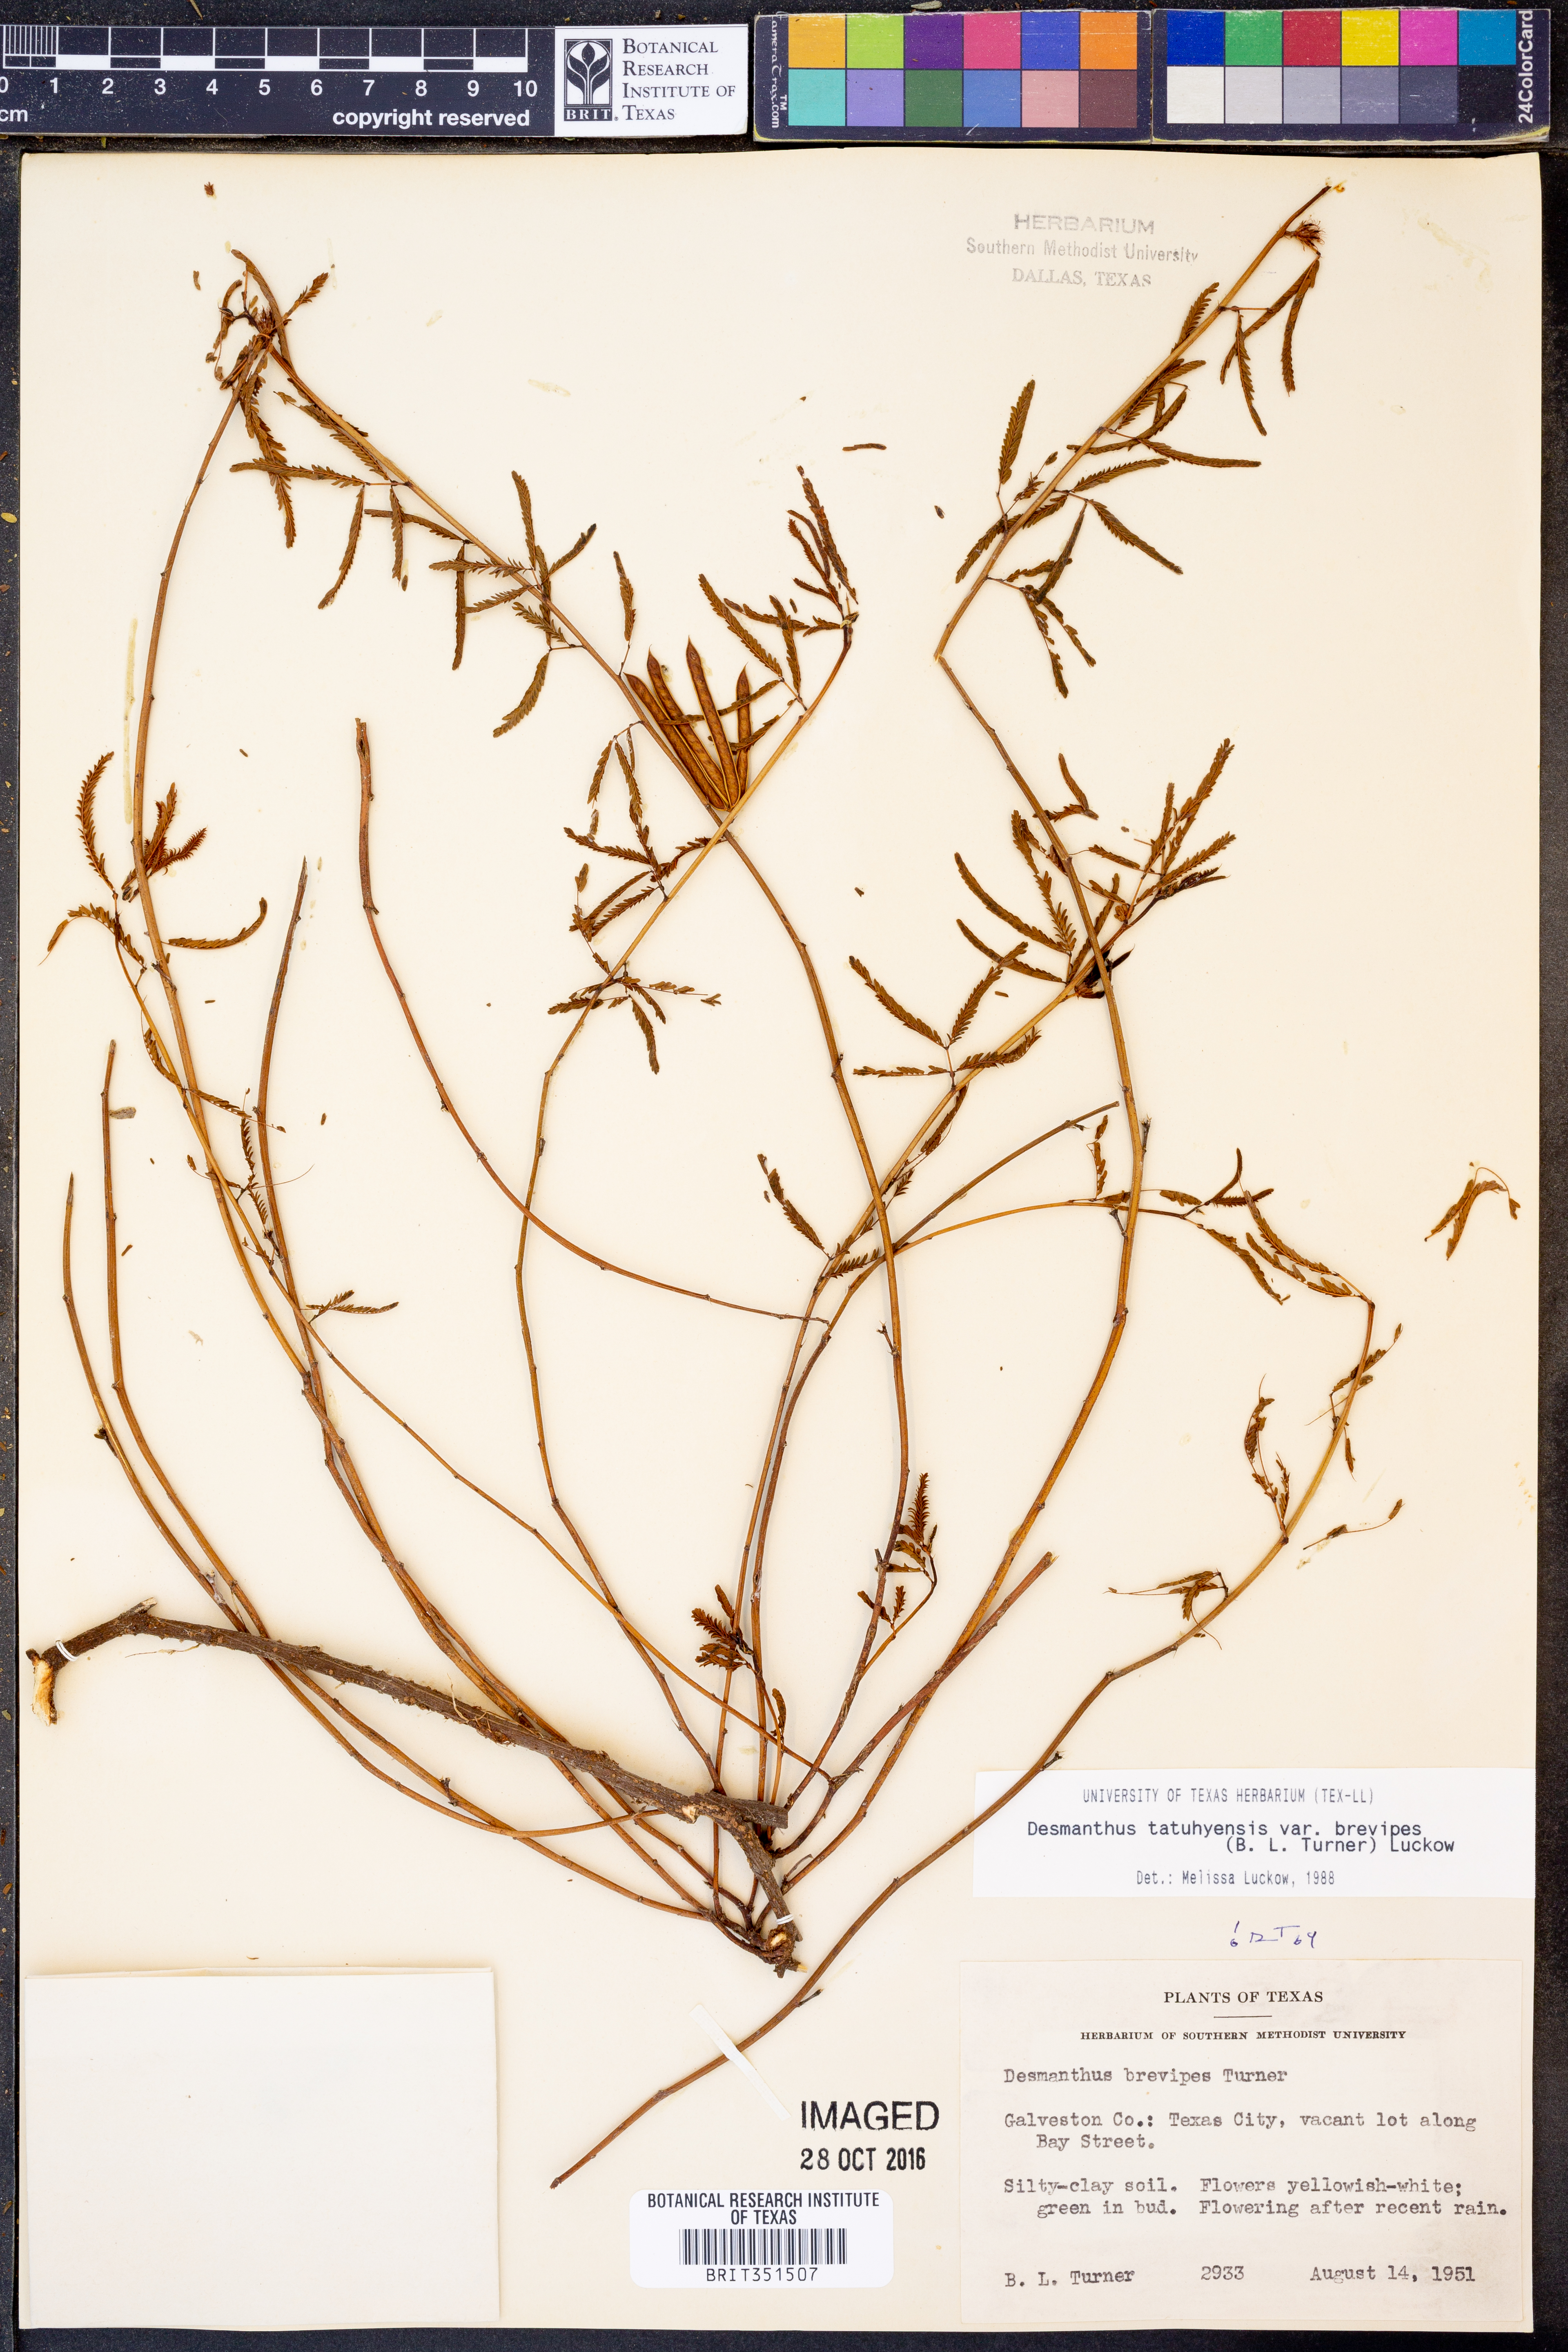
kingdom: Plantae
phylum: Tracheophyta
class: Magnoliopsida
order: Fabales
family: Fabaceae
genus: Desmanthus
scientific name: Desmanthus tatuhyensis
